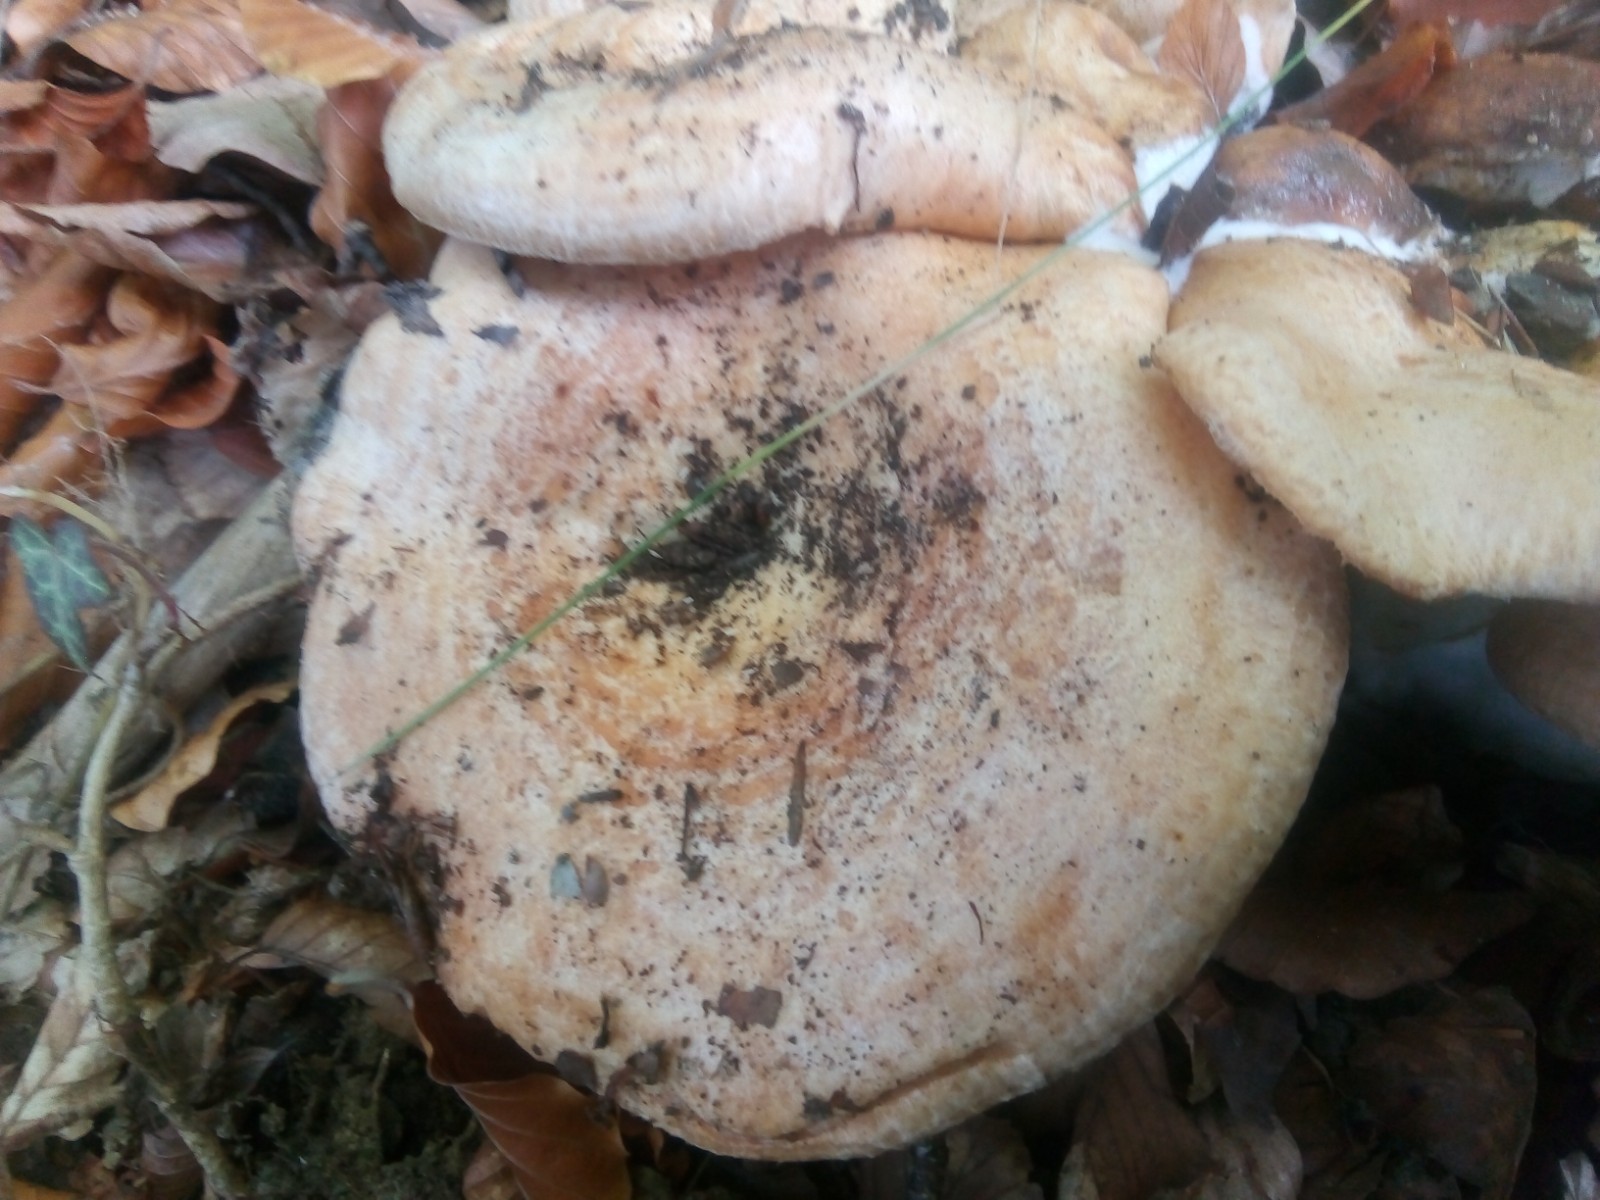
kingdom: Fungi
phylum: Basidiomycota
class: Agaricomycetes
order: Russulales
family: Russulaceae
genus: Lactarius
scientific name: Lactarius zonarius
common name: zoneret mælkehat
